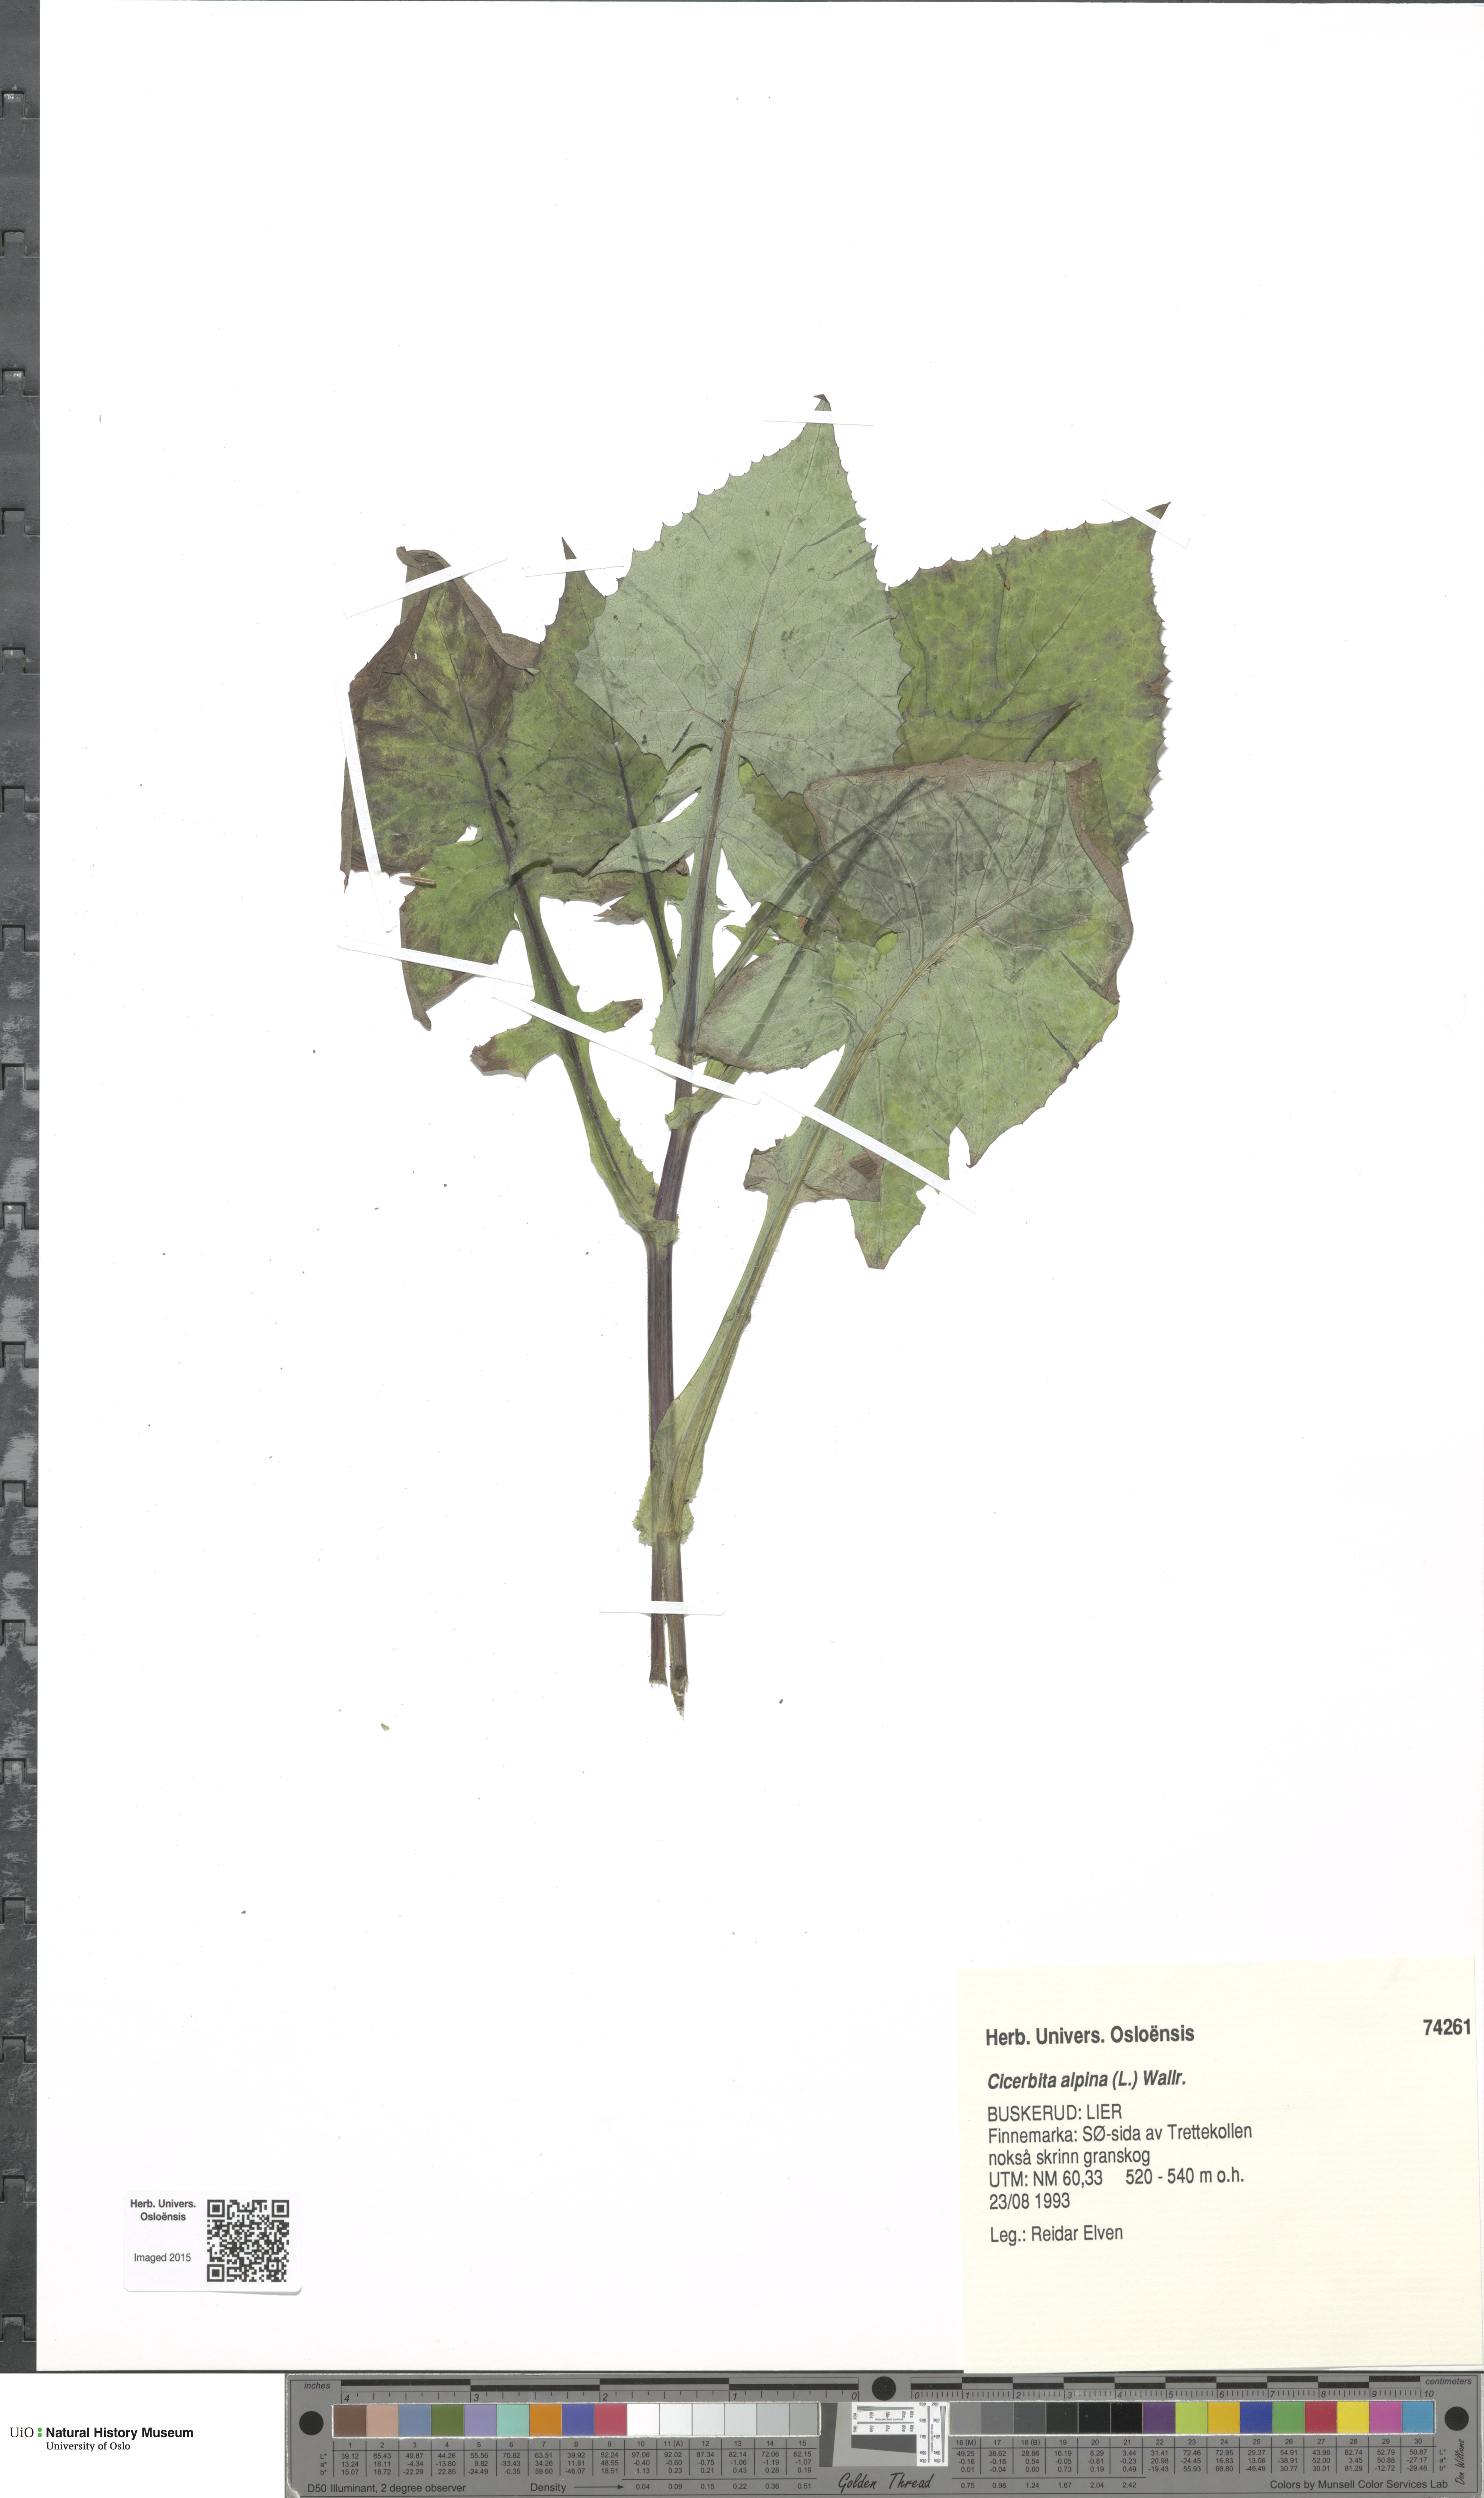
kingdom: Plantae
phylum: Tracheophyta
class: Magnoliopsida
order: Asterales
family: Asteraceae
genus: Cicerbita
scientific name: Cicerbita alpina
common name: Alpine blue-sow-thistle
